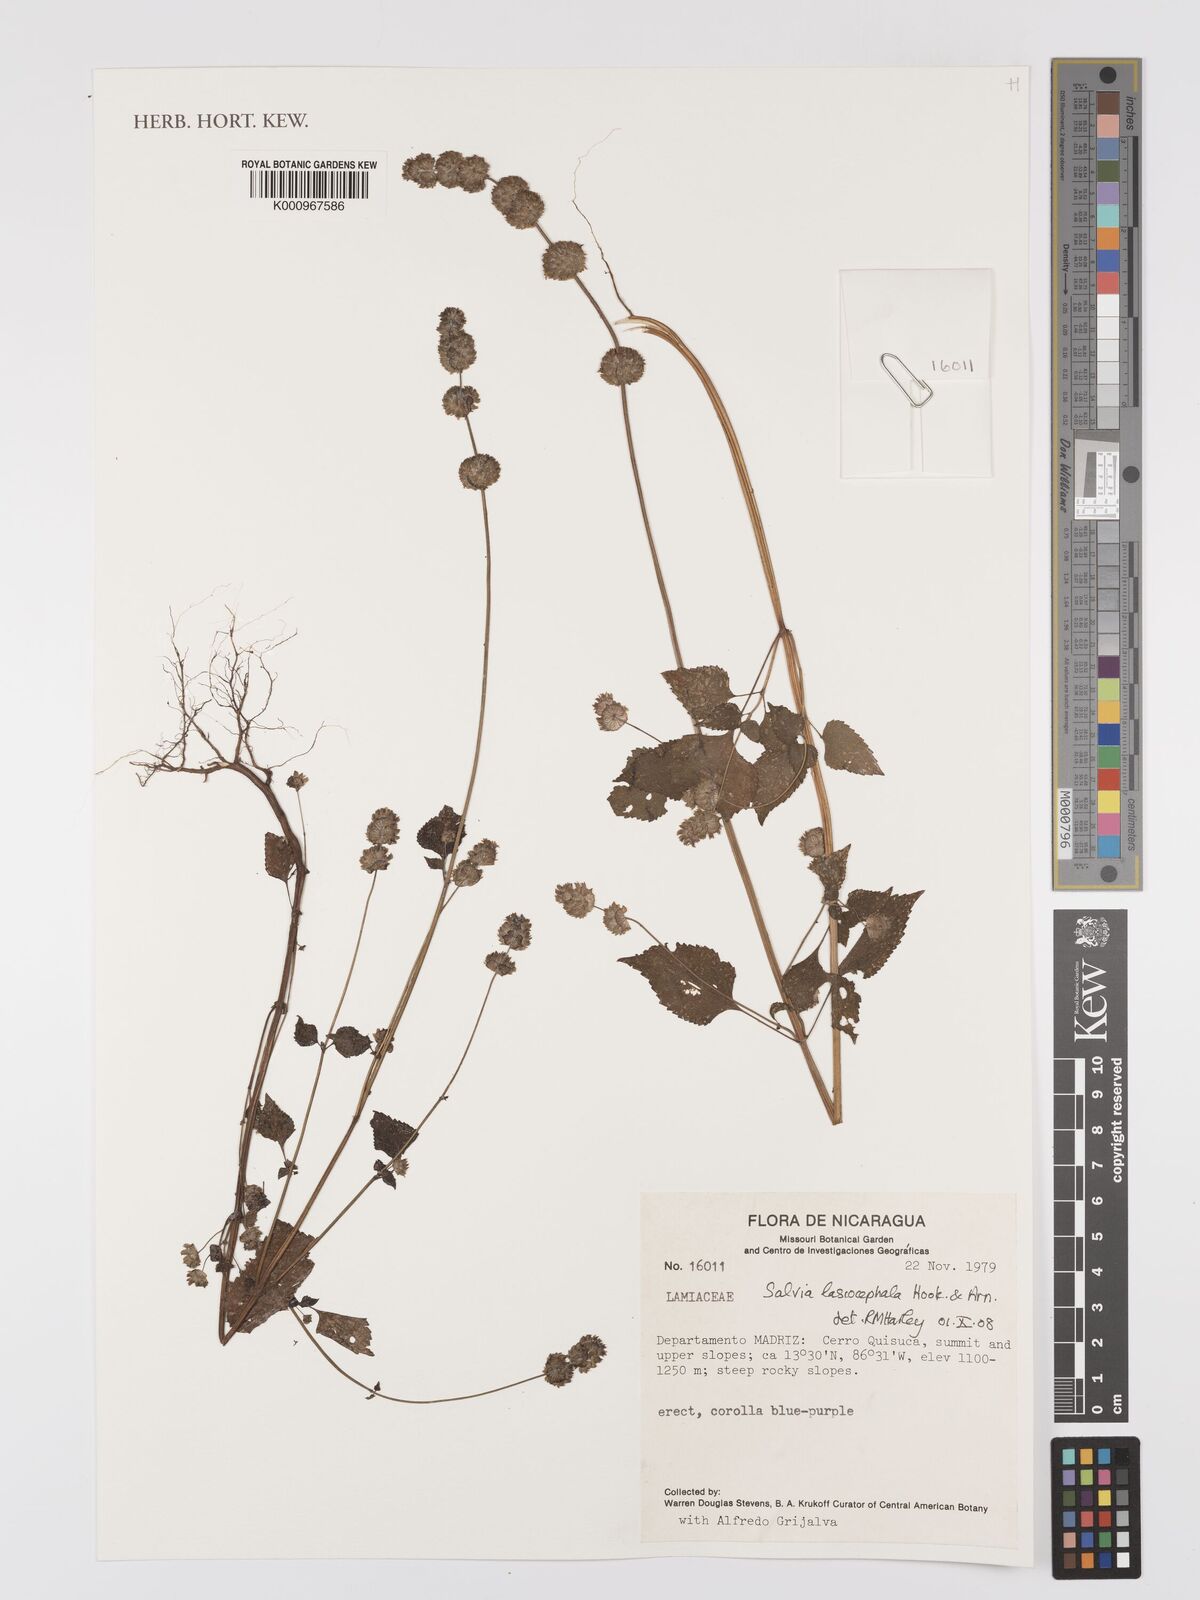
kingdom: Plantae
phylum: Tracheophyta
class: Magnoliopsida
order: Lamiales
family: Lamiaceae
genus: Salvia
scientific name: Salvia lasiocephala
